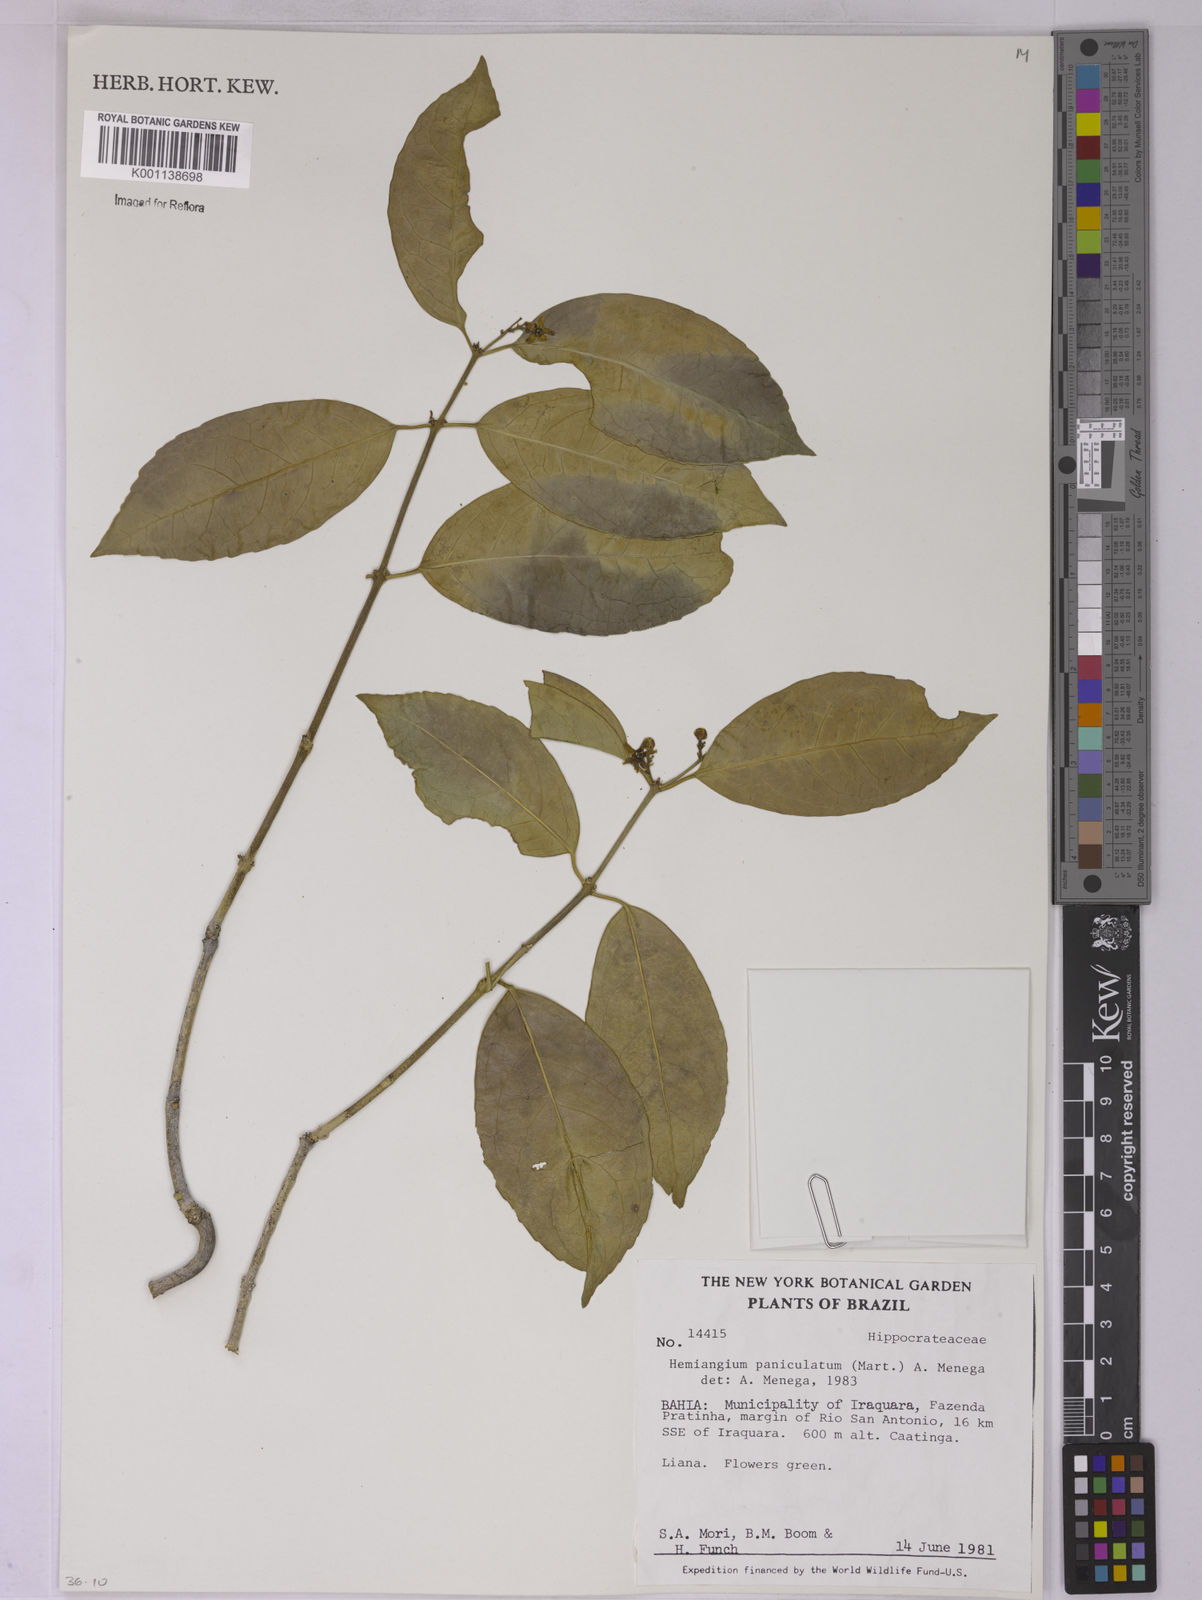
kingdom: Plantae
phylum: Tracheophyta
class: Magnoliopsida
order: Celastrales
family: Celastraceae
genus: Semialarium
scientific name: Semialarium
